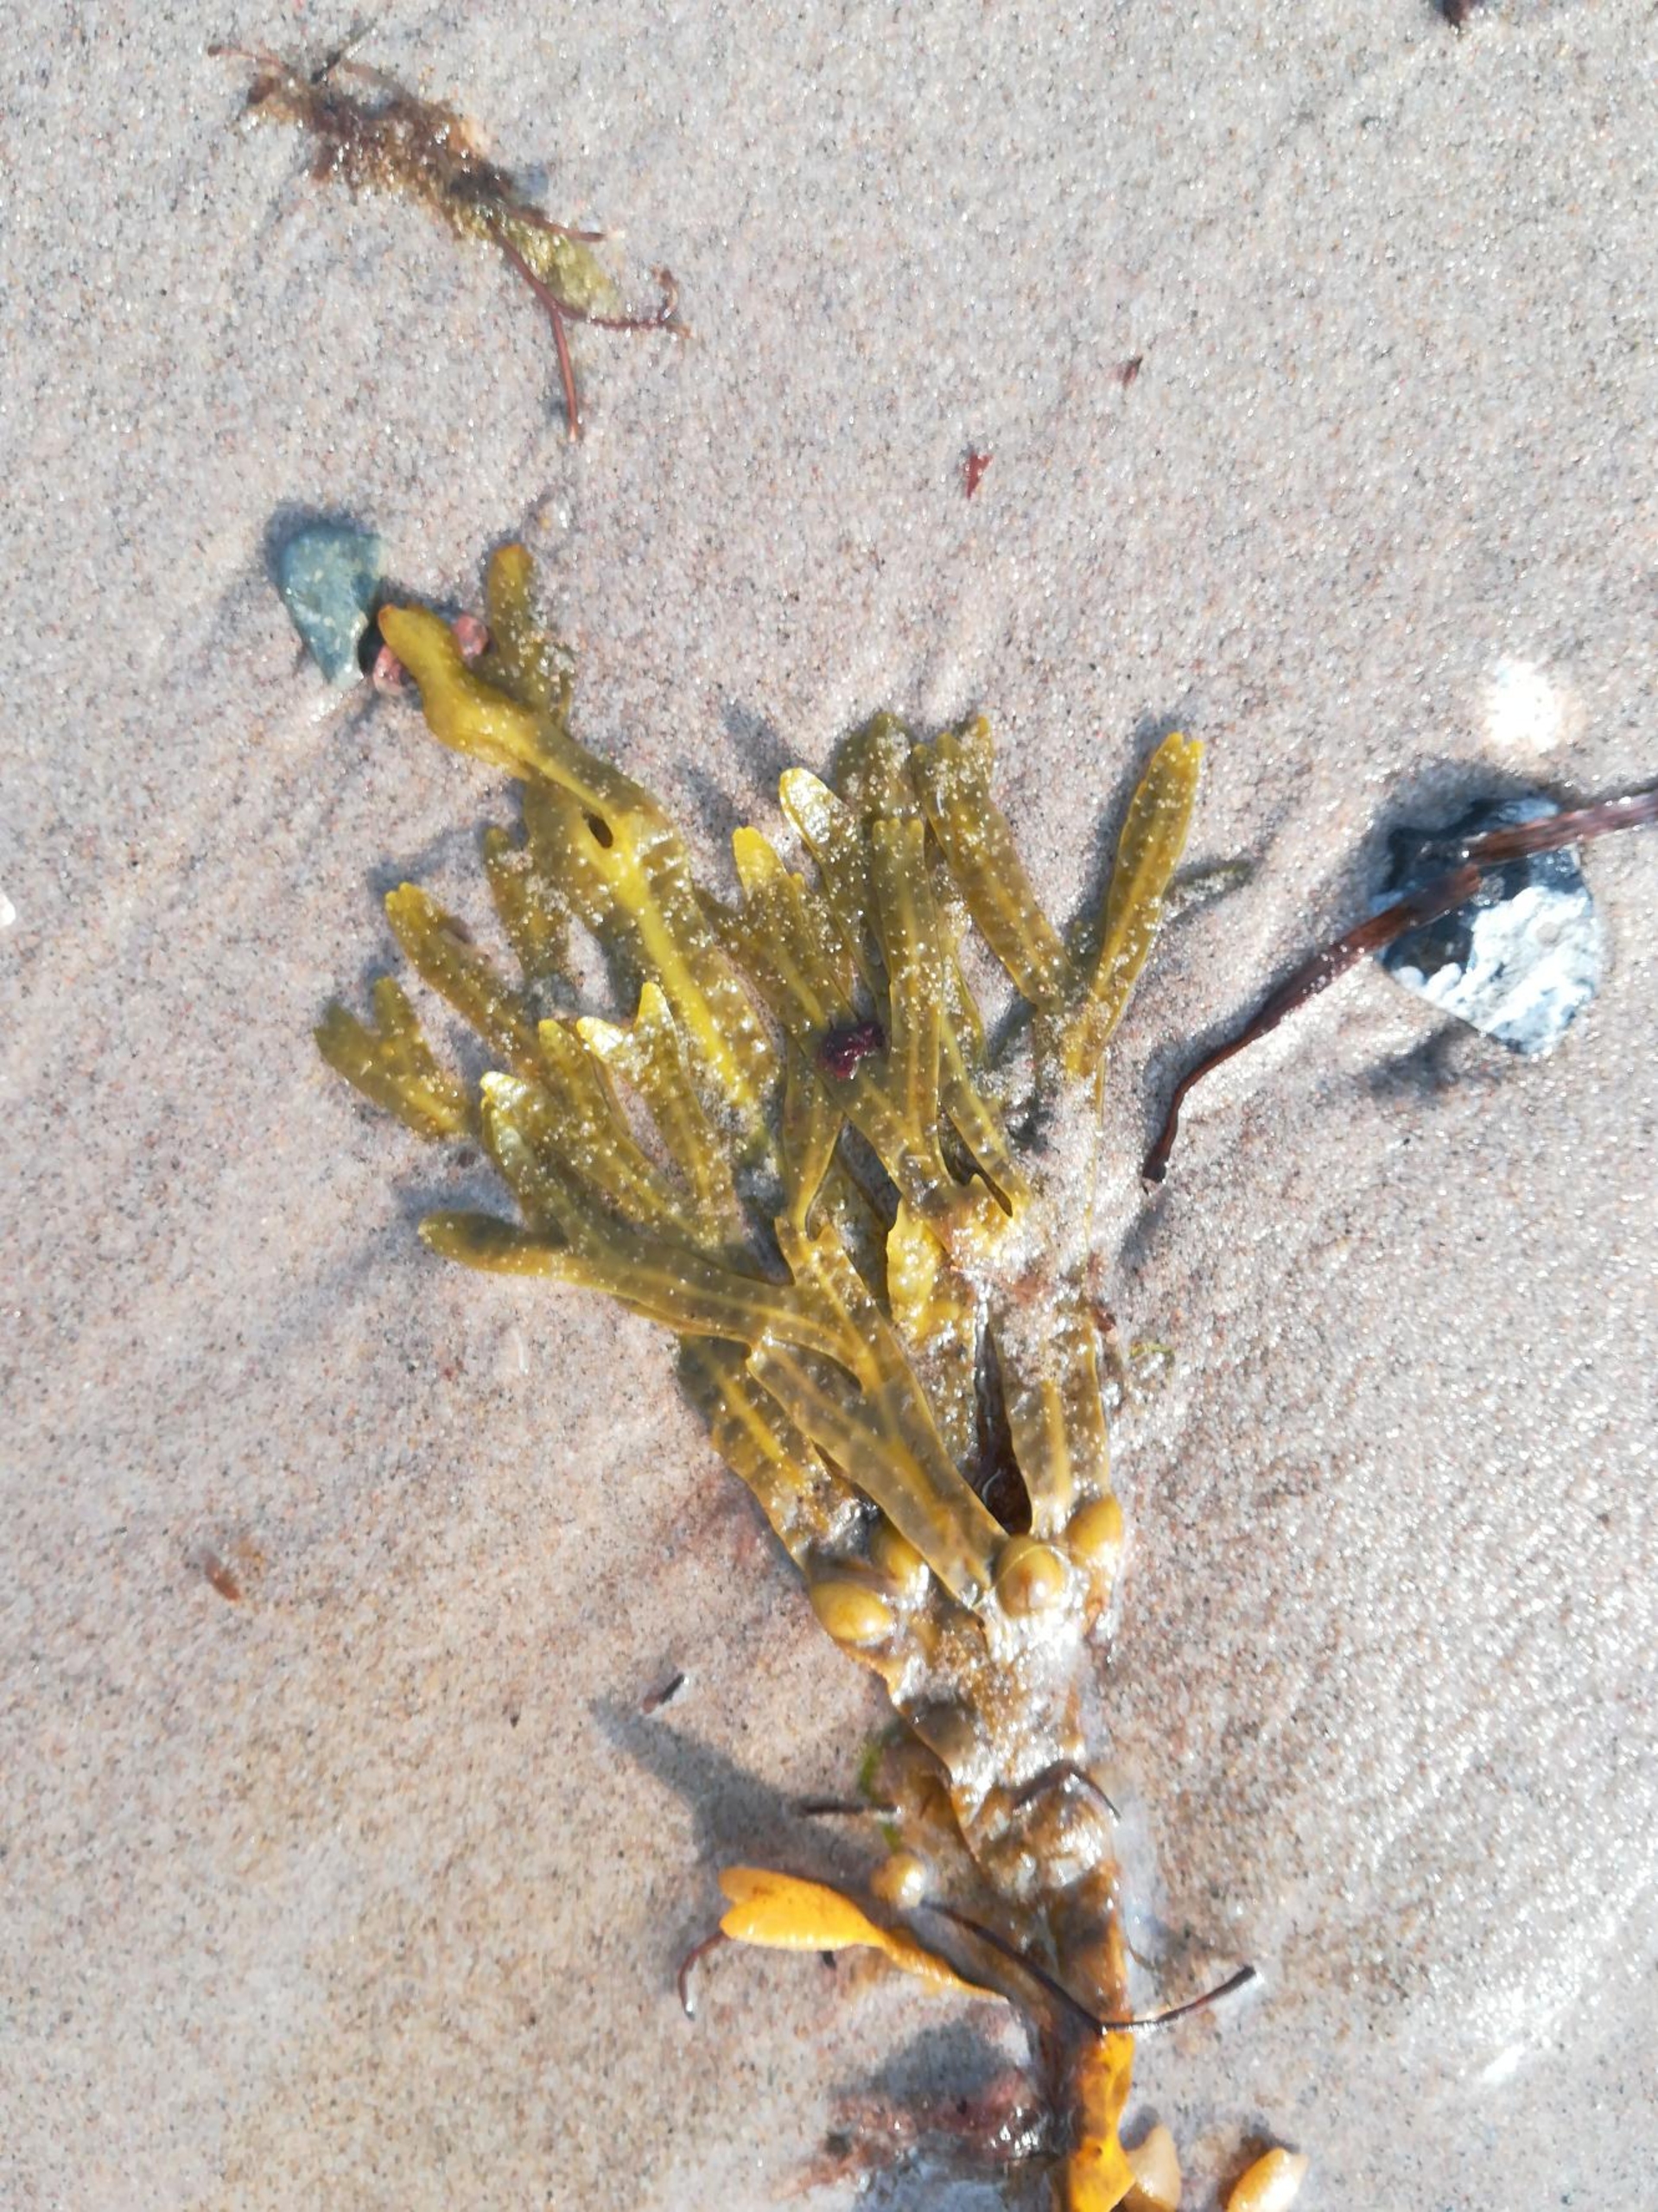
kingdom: Chromista
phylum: Ochrophyta
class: Phaeophyceae
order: Fucales
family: Fucaceae
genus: Fucus
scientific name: Fucus vesiculosus
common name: Blæretang
